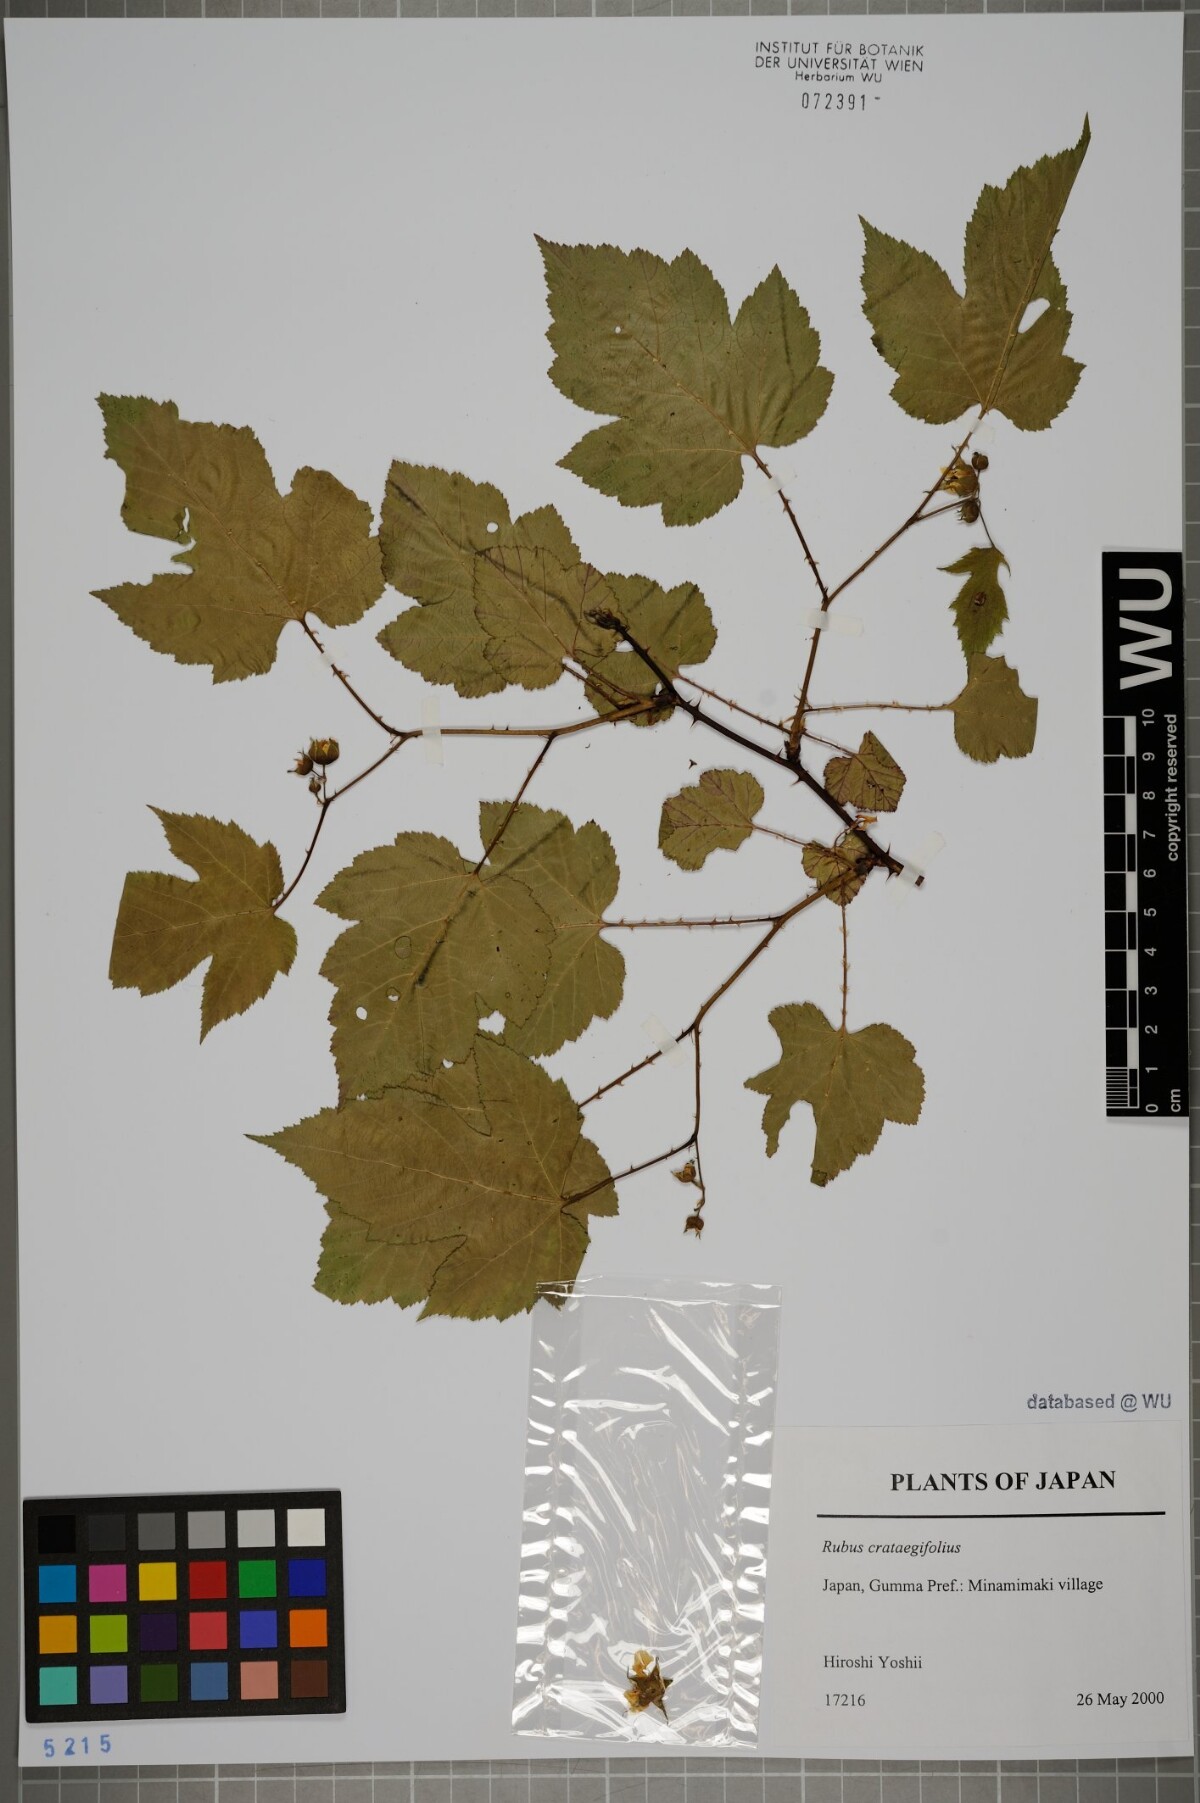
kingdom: Plantae
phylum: Tracheophyta
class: Magnoliopsida
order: Rosales
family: Rosaceae
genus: Rubus
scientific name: Rubus crataegifolius
